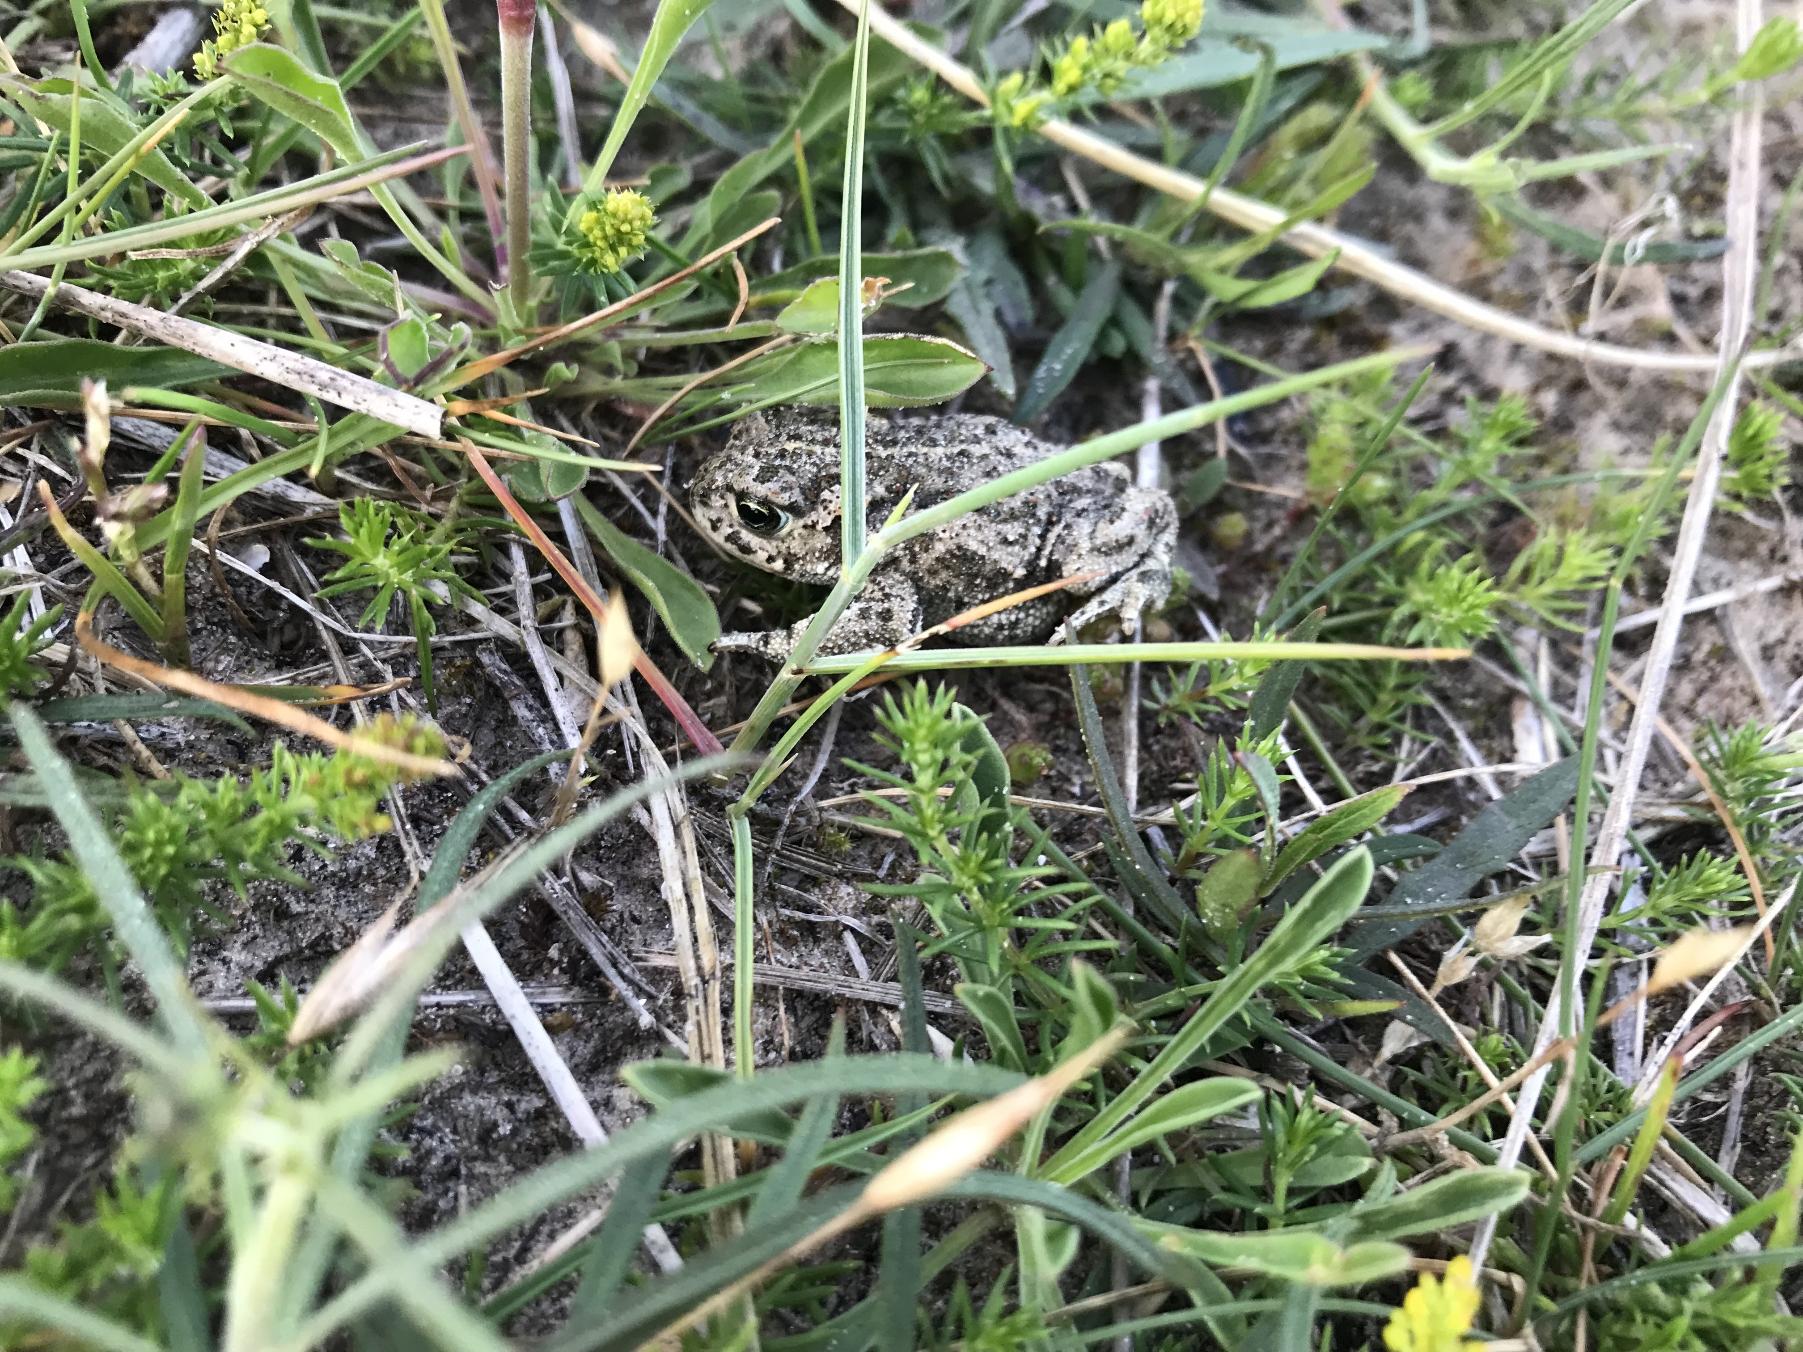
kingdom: Animalia
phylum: Chordata
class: Amphibia
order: Anura
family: Bufonidae
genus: Epidalea
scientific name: Epidalea calamita
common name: Strandtudse
